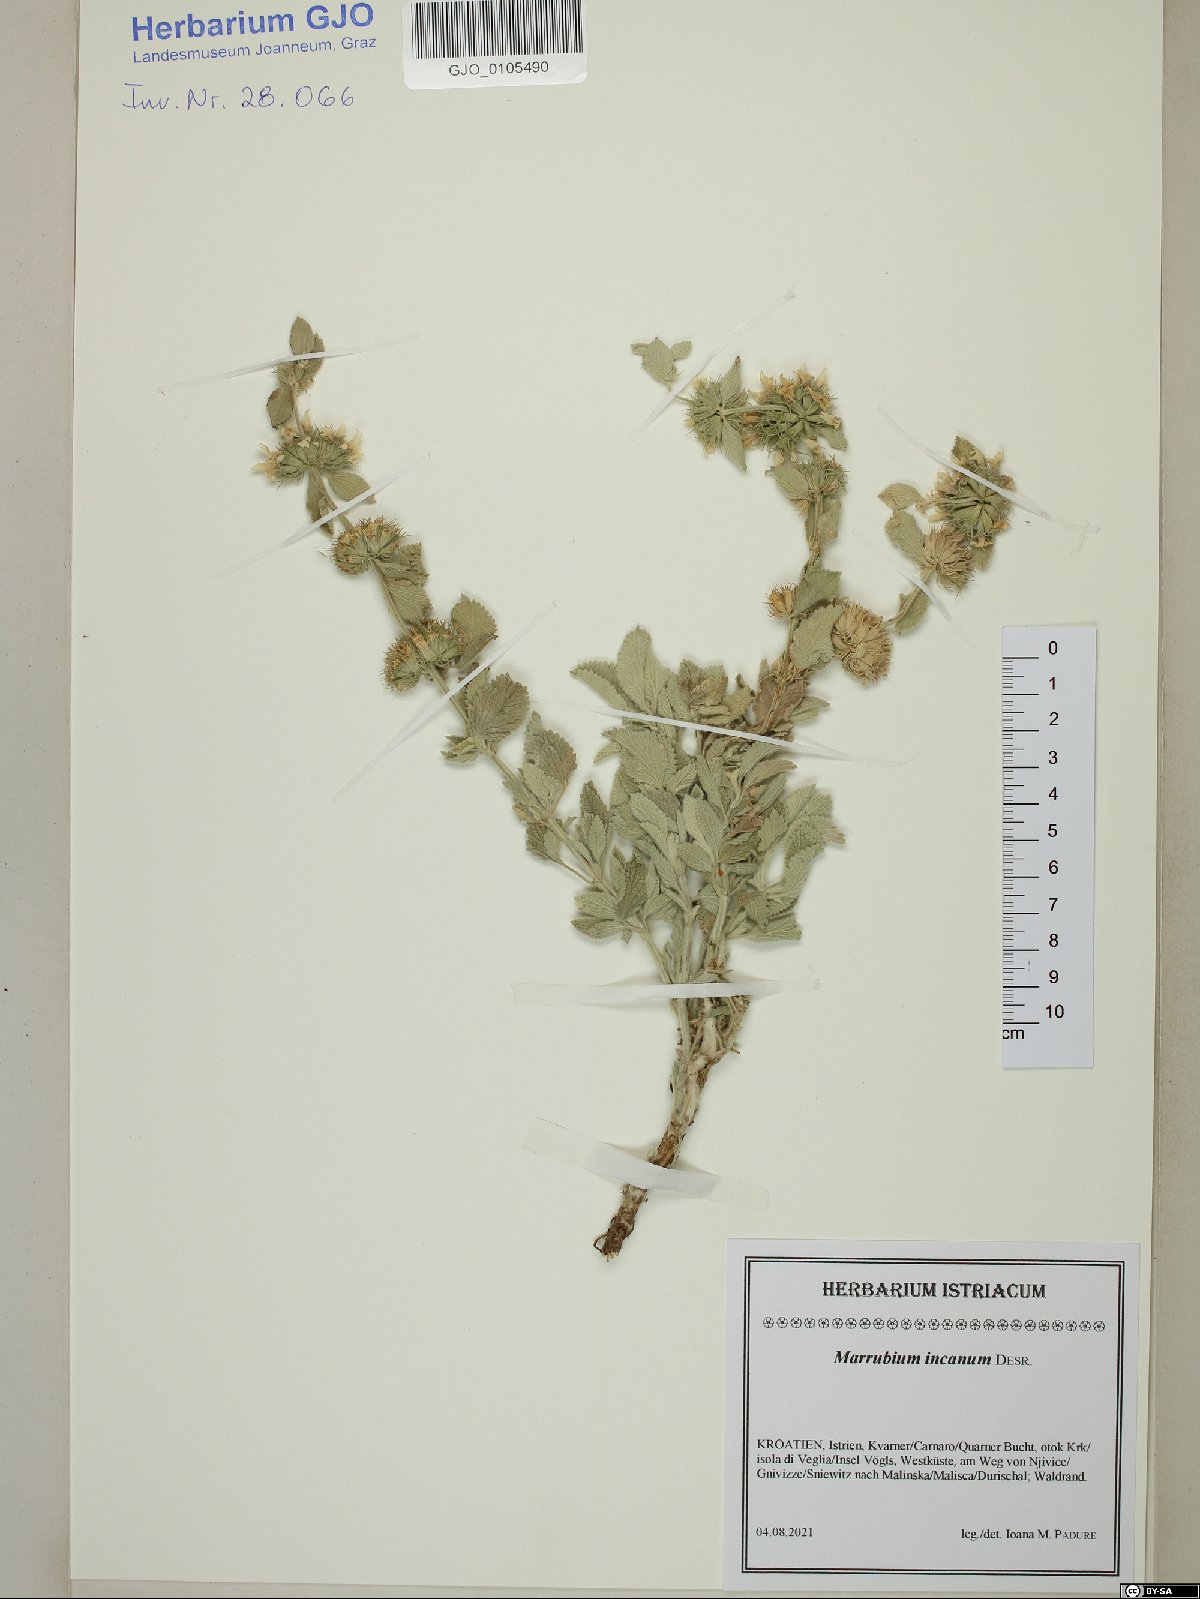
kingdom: Plantae
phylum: Tracheophyta
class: Magnoliopsida
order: Lamiales
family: Lamiaceae
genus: Marrubium
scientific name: Marrubium incanum
